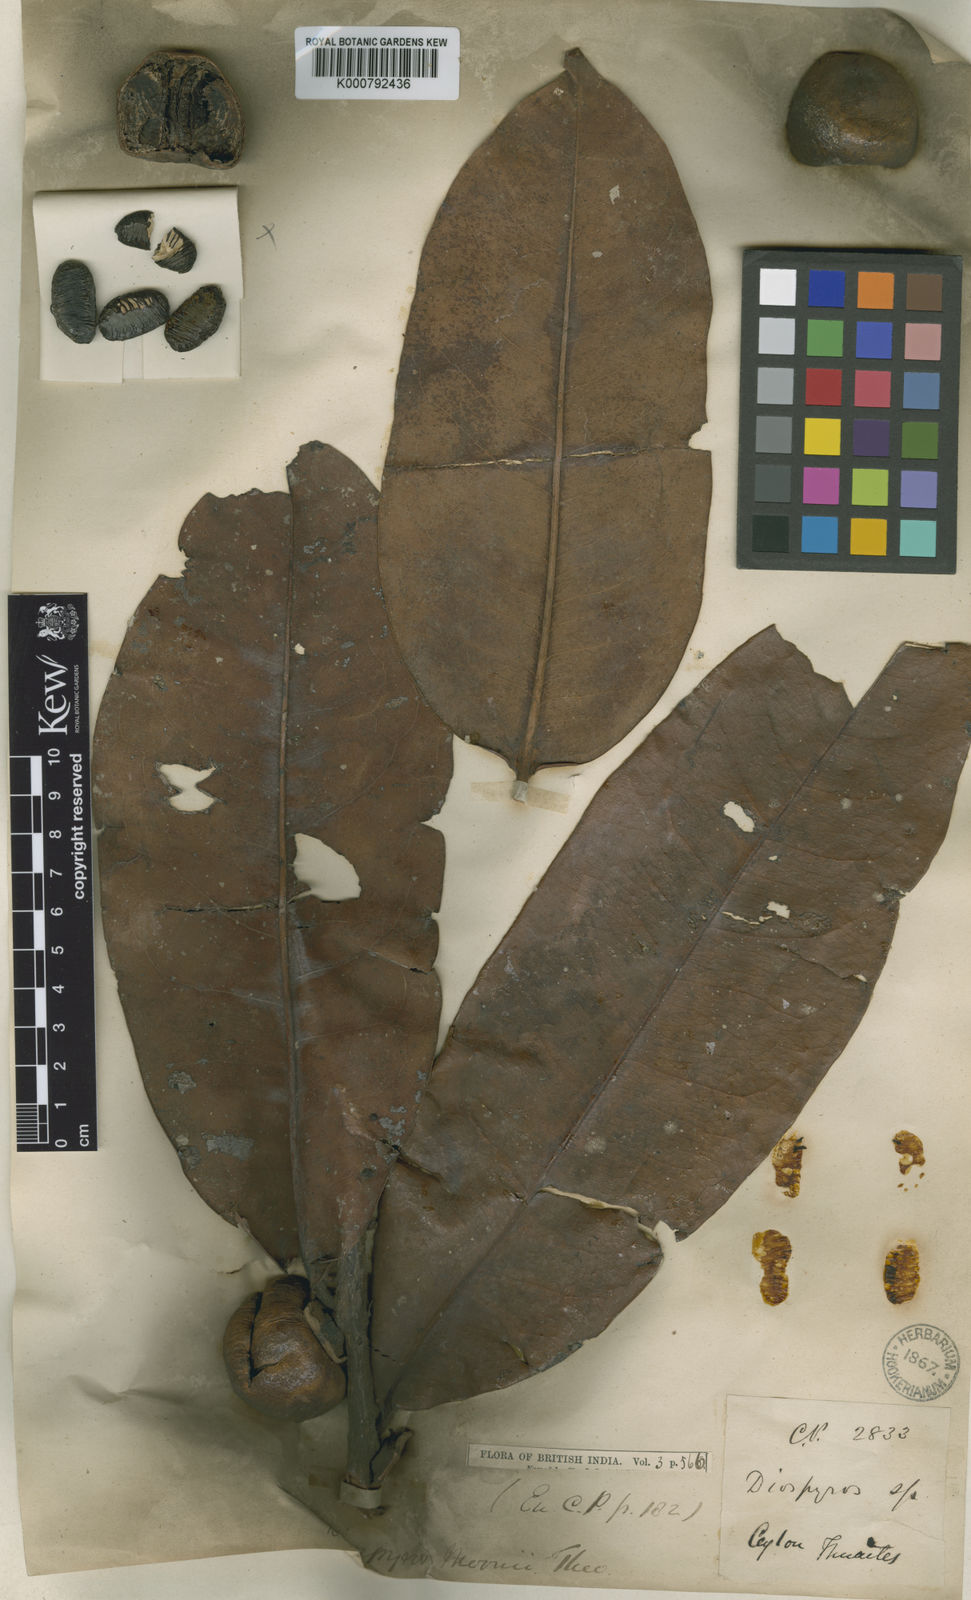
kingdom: Plantae
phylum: Tracheophyta
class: Magnoliopsida
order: Ericales
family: Ebenaceae
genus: Diospyros
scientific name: Diospyros moonii
